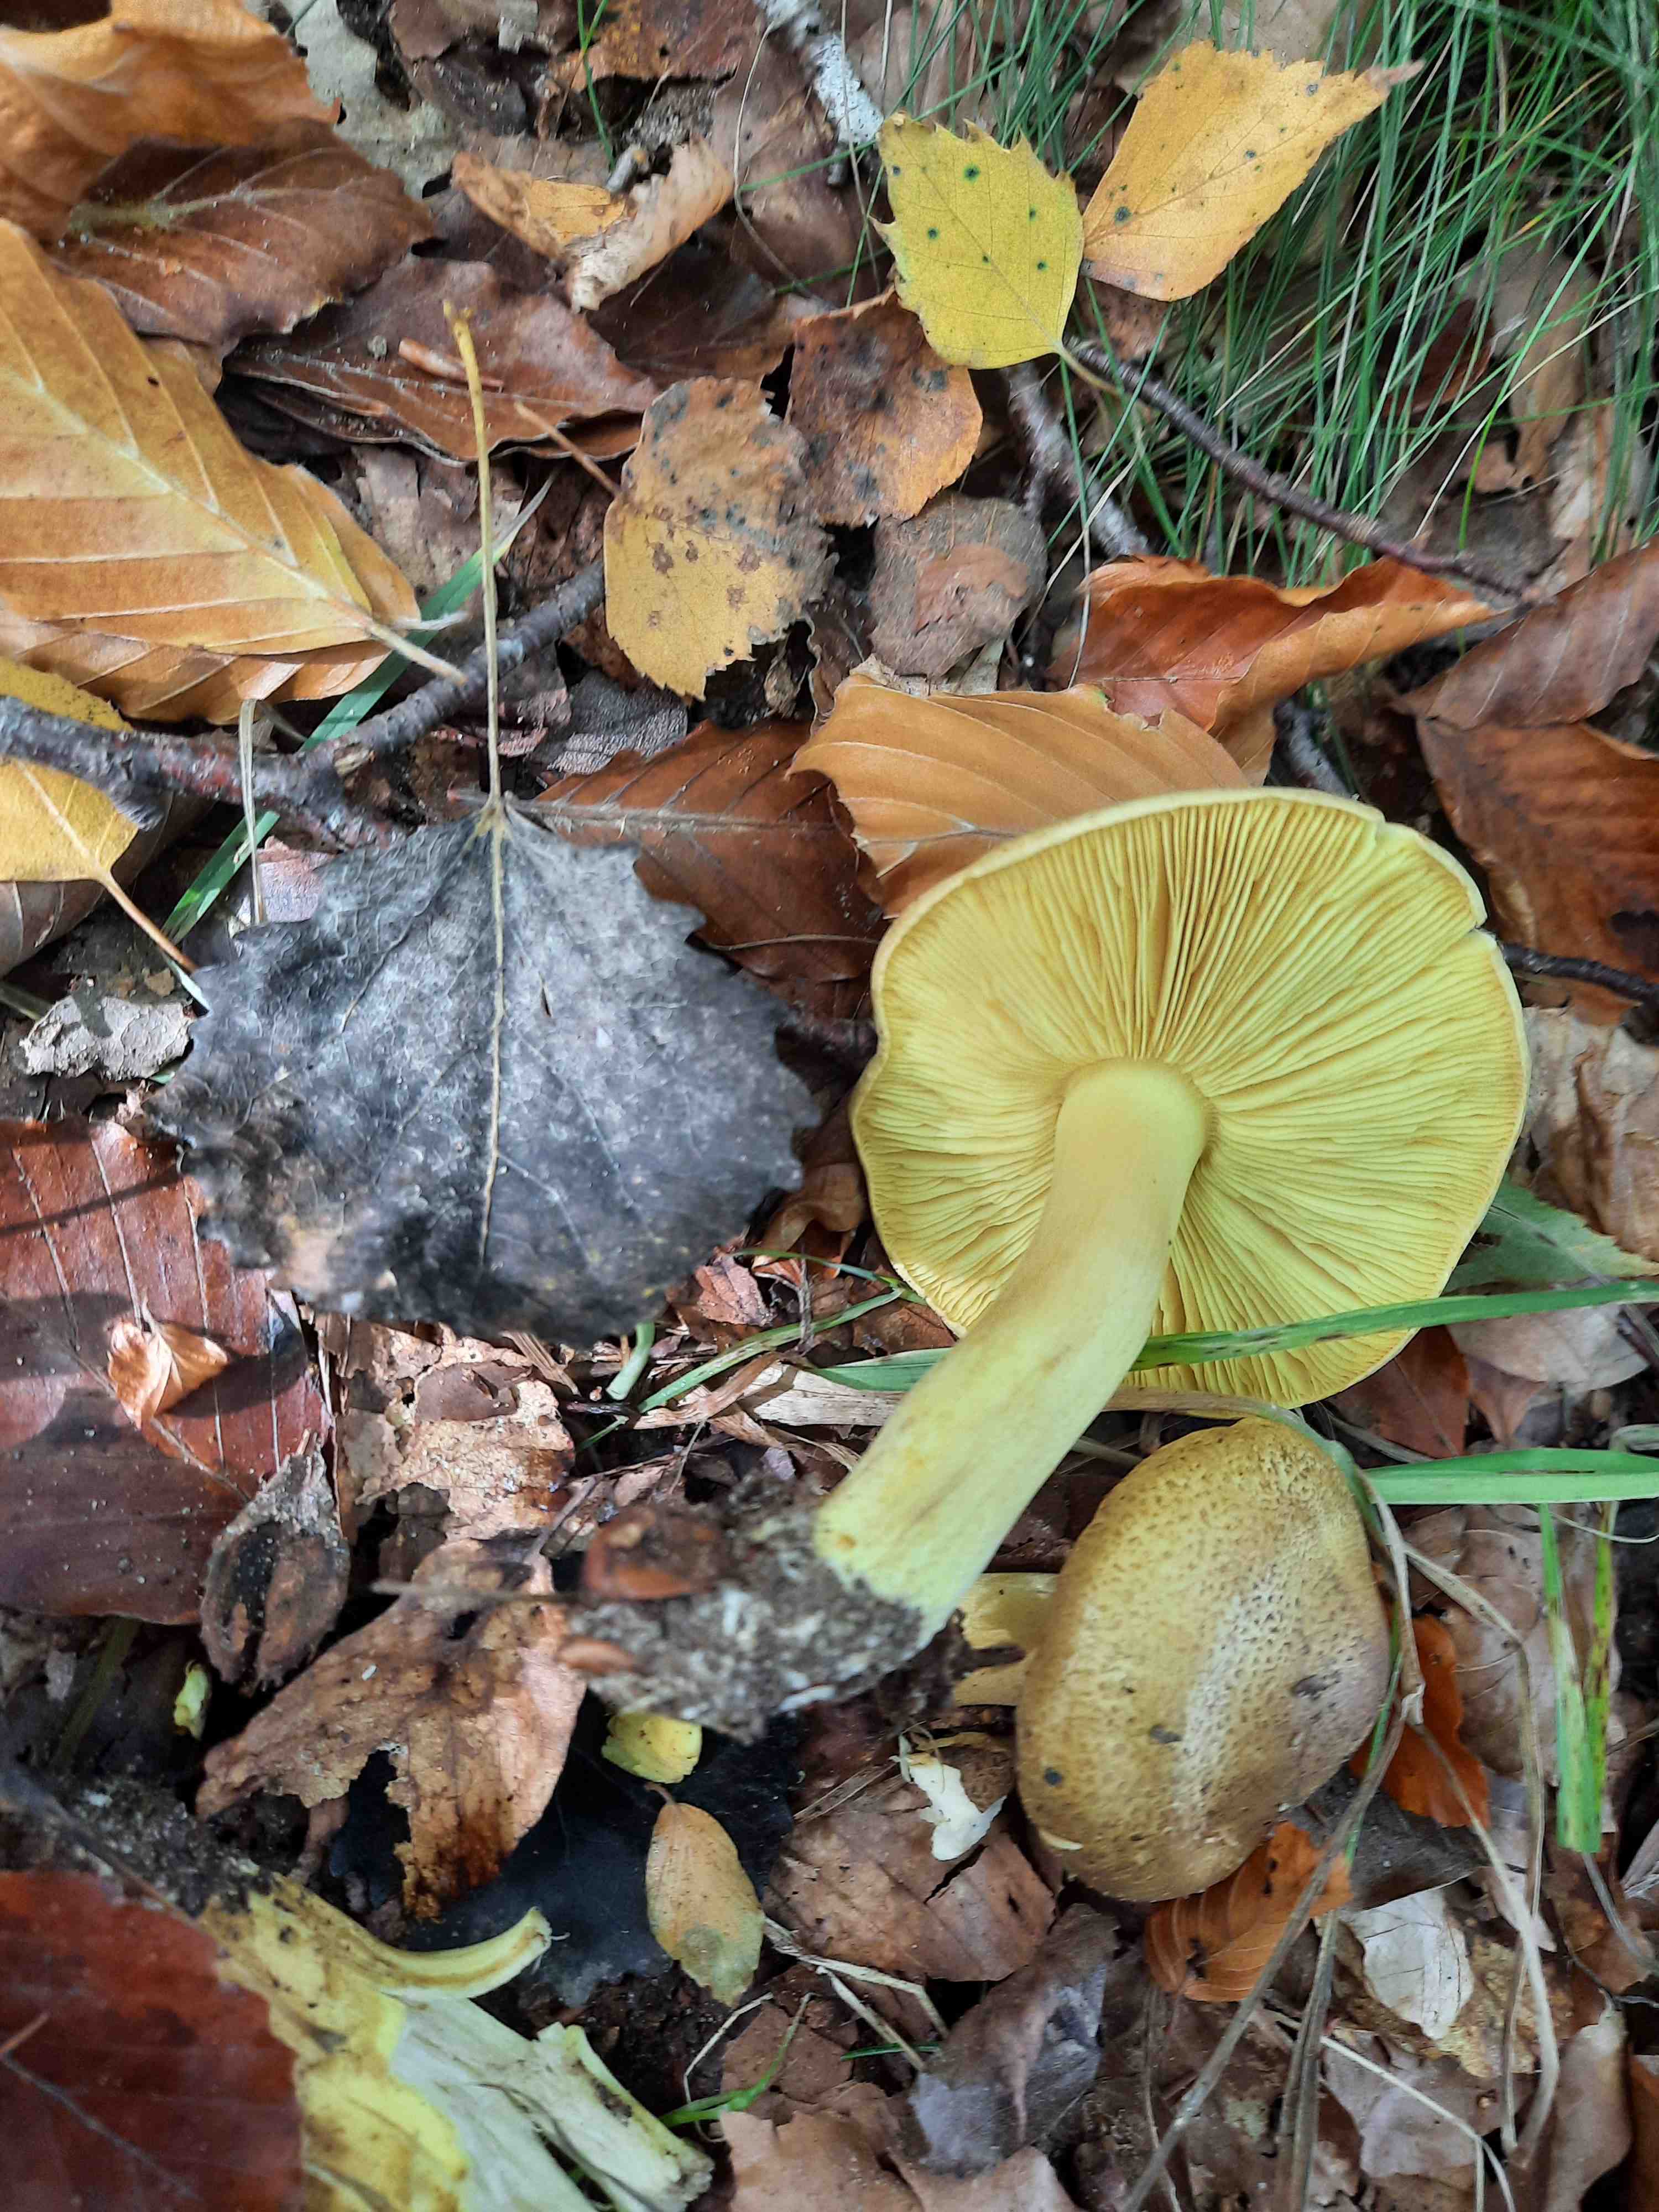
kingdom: Fungi
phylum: Basidiomycota
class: Agaricomycetes
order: Agaricales
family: Tricholomataceae
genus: Tricholoma
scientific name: Tricholoma frondosae
